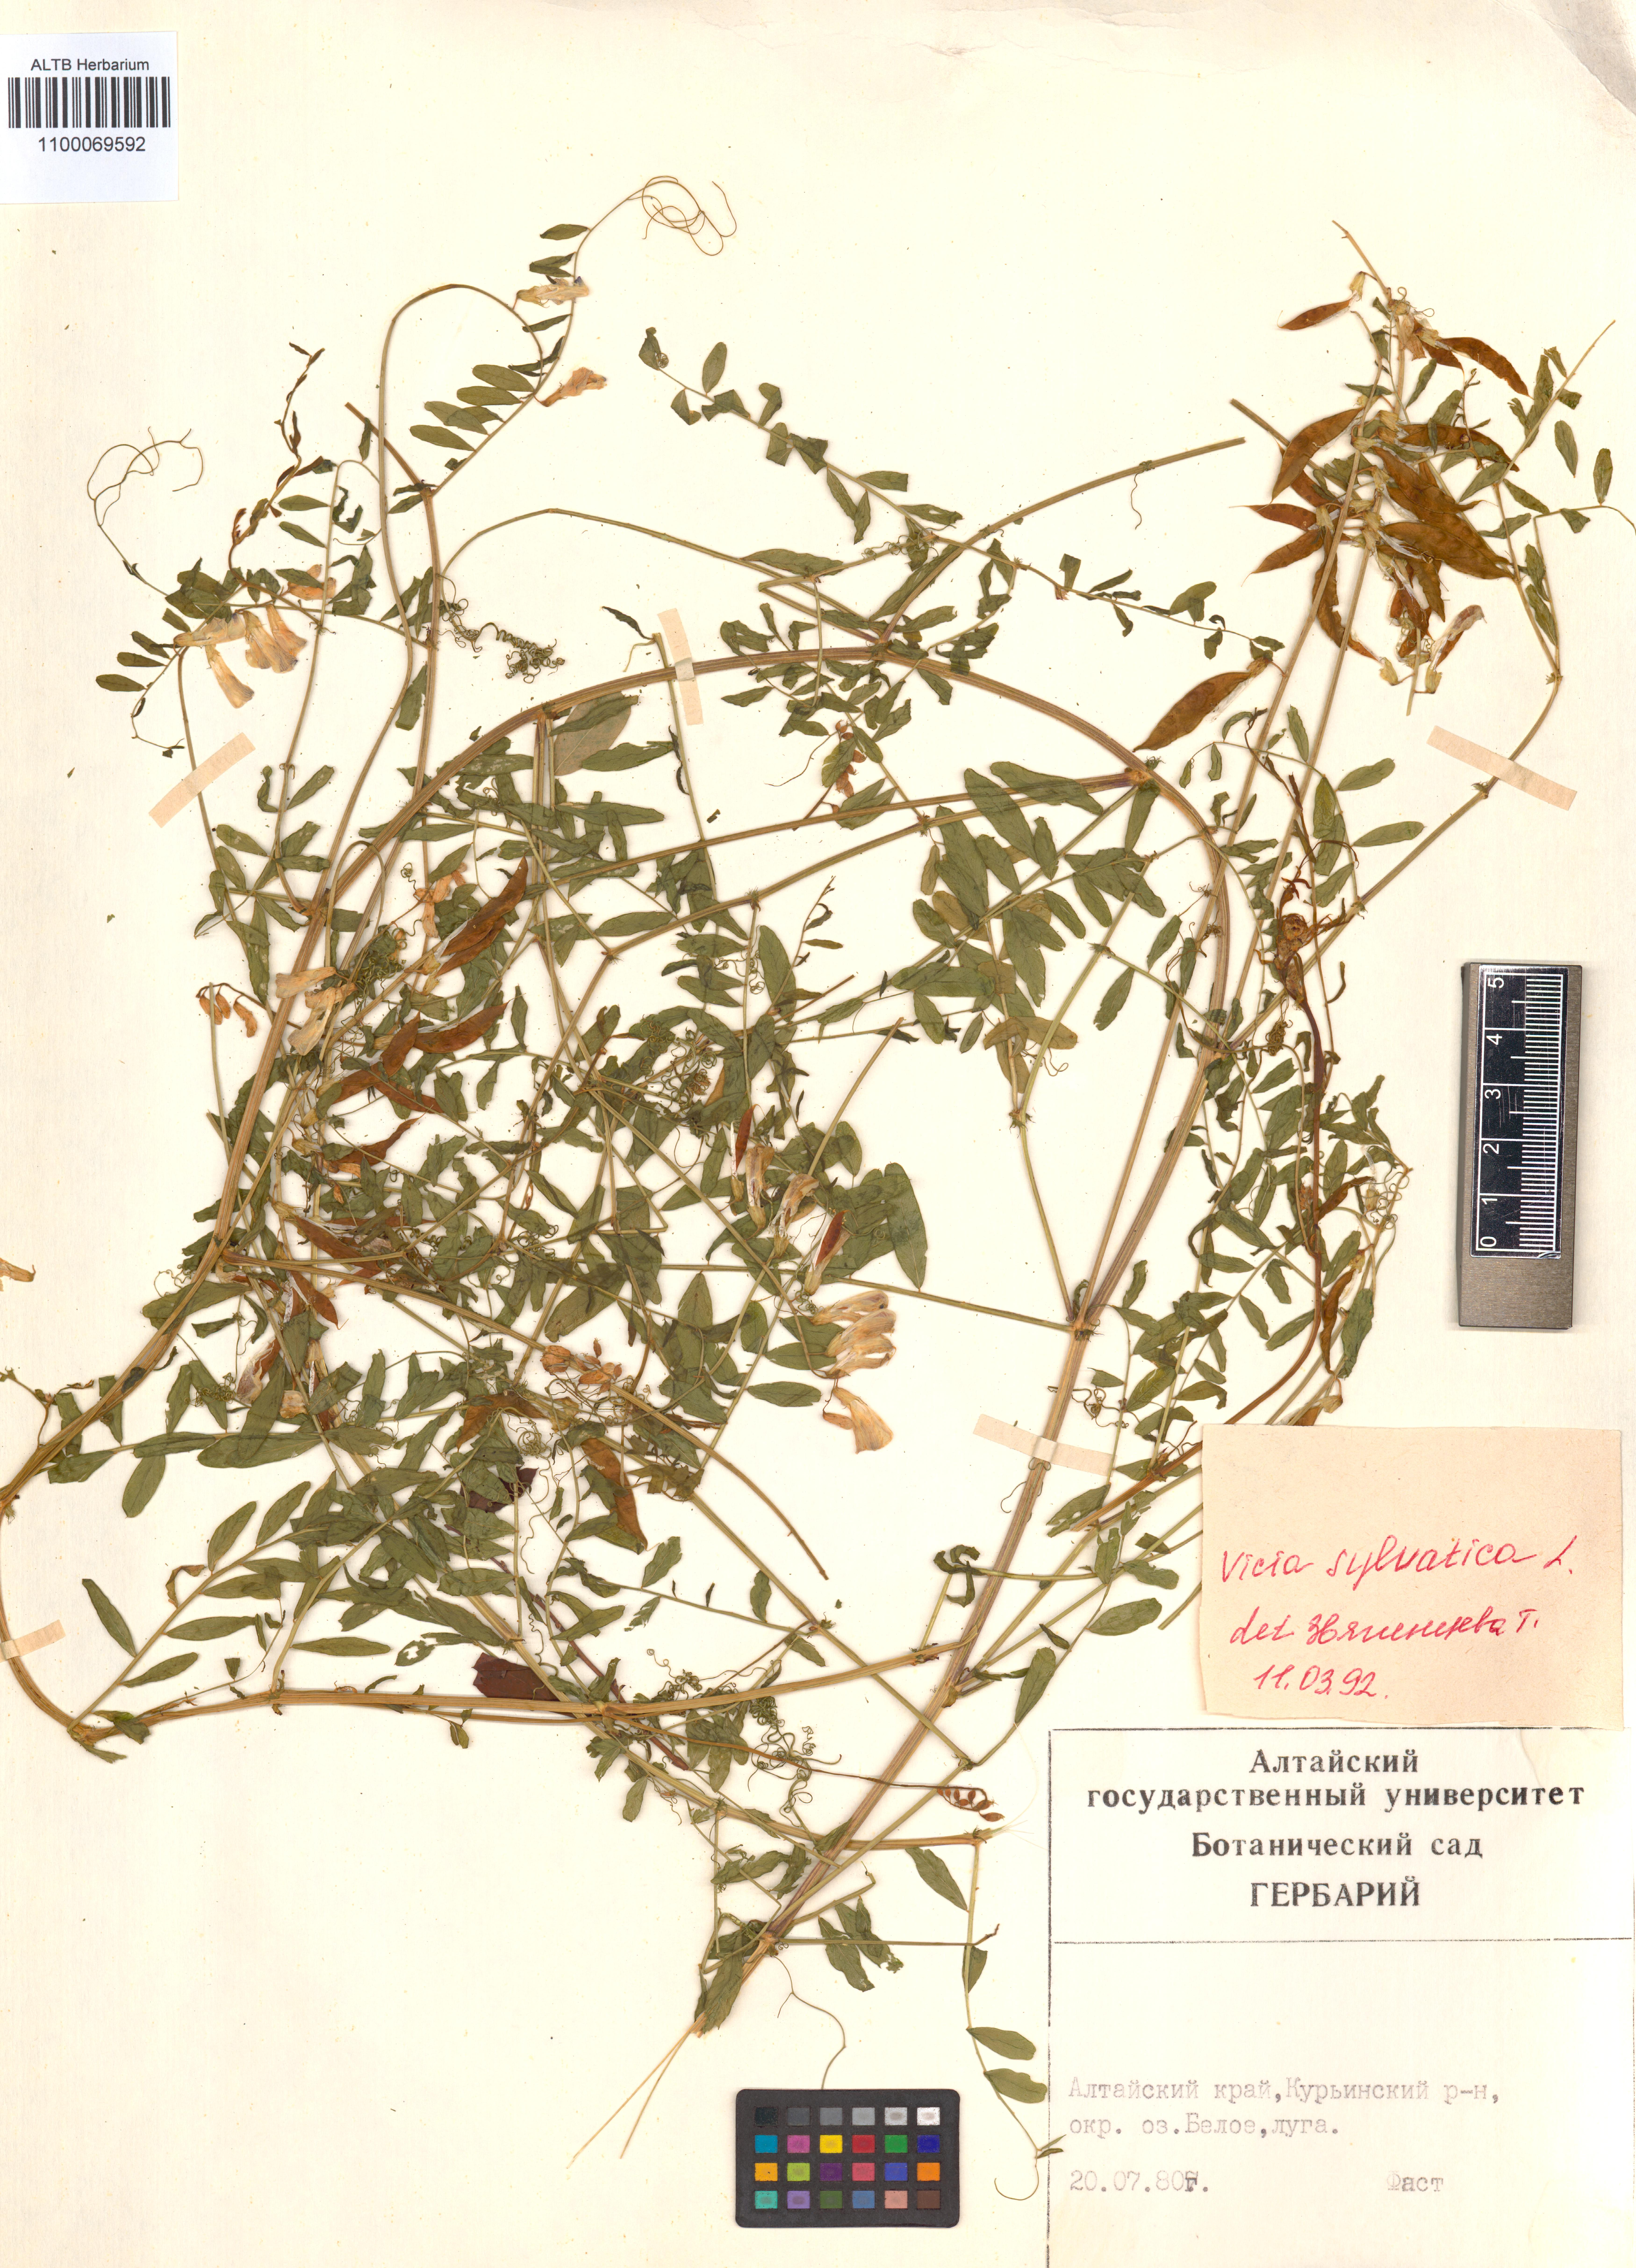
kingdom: Plantae
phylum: Tracheophyta
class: Magnoliopsida
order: Fabales
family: Fabaceae
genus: Vicia
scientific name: Vicia bakeri
